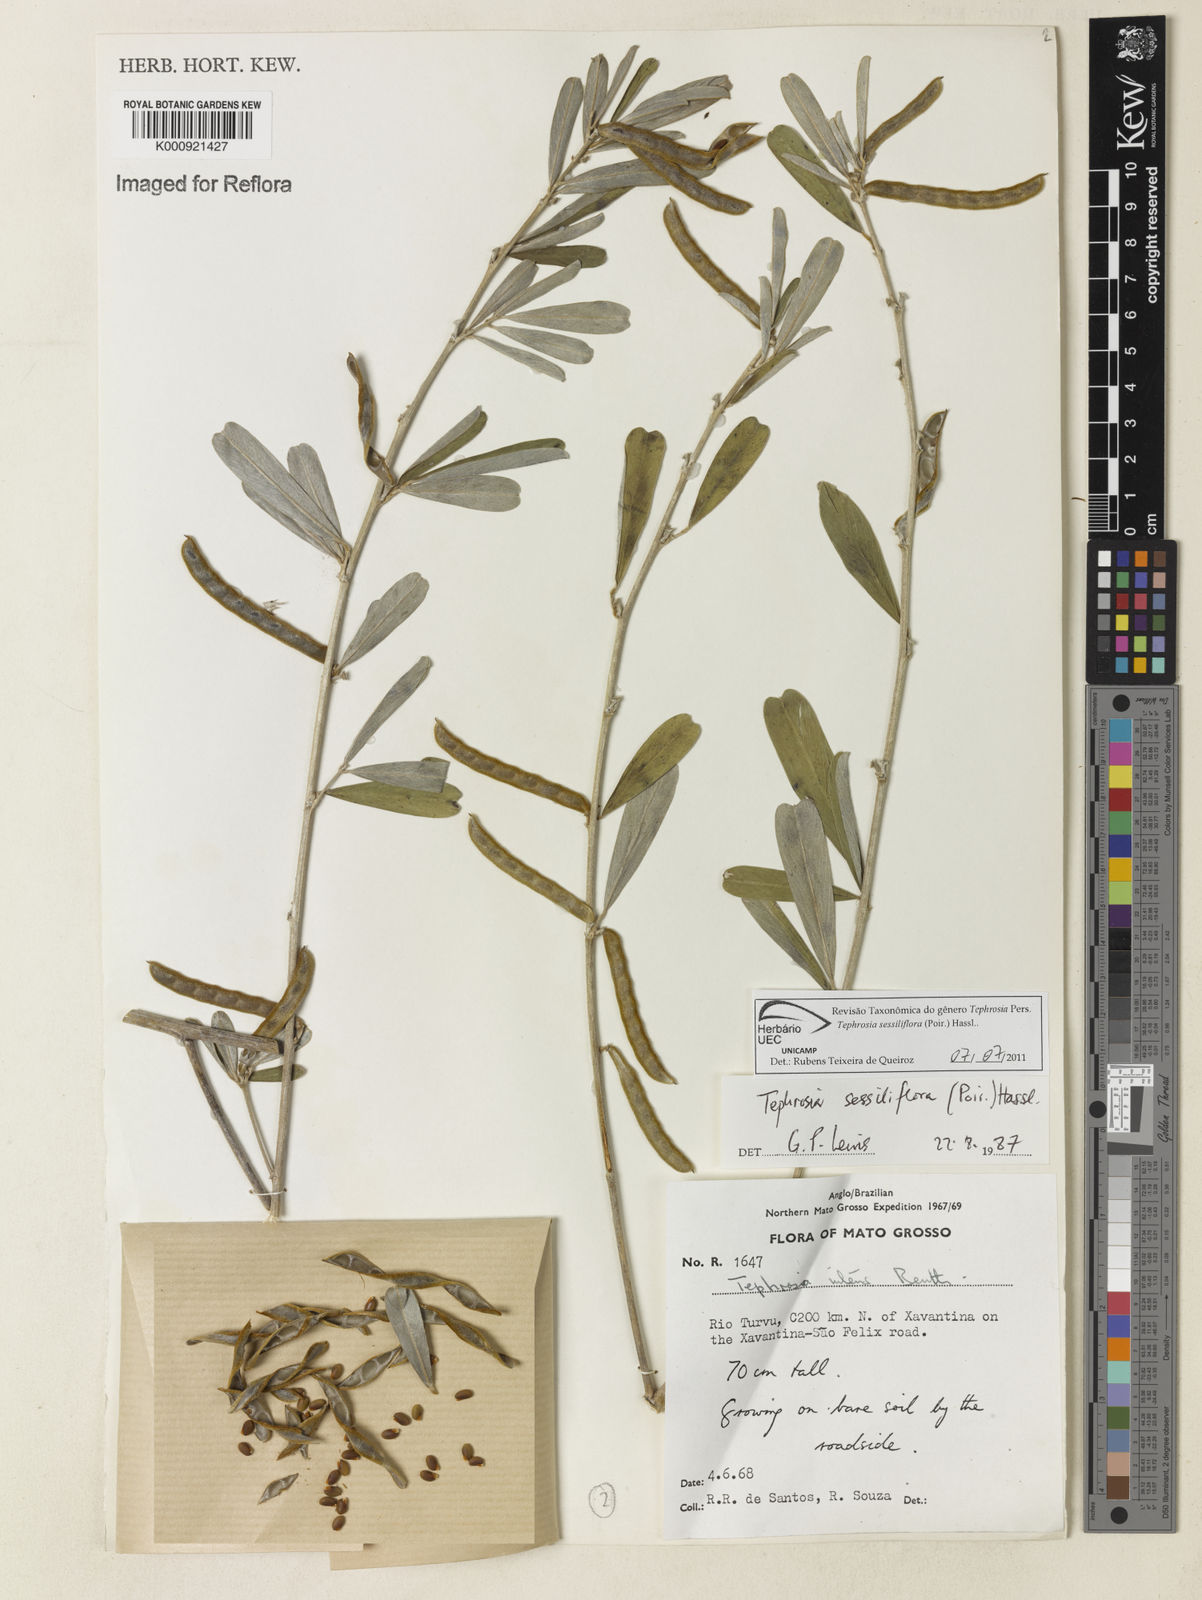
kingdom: Plantae
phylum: Tracheophyta
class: Magnoliopsida
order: Fabales
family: Fabaceae
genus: Tephrosia
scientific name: Tephrosia sessiliflora
